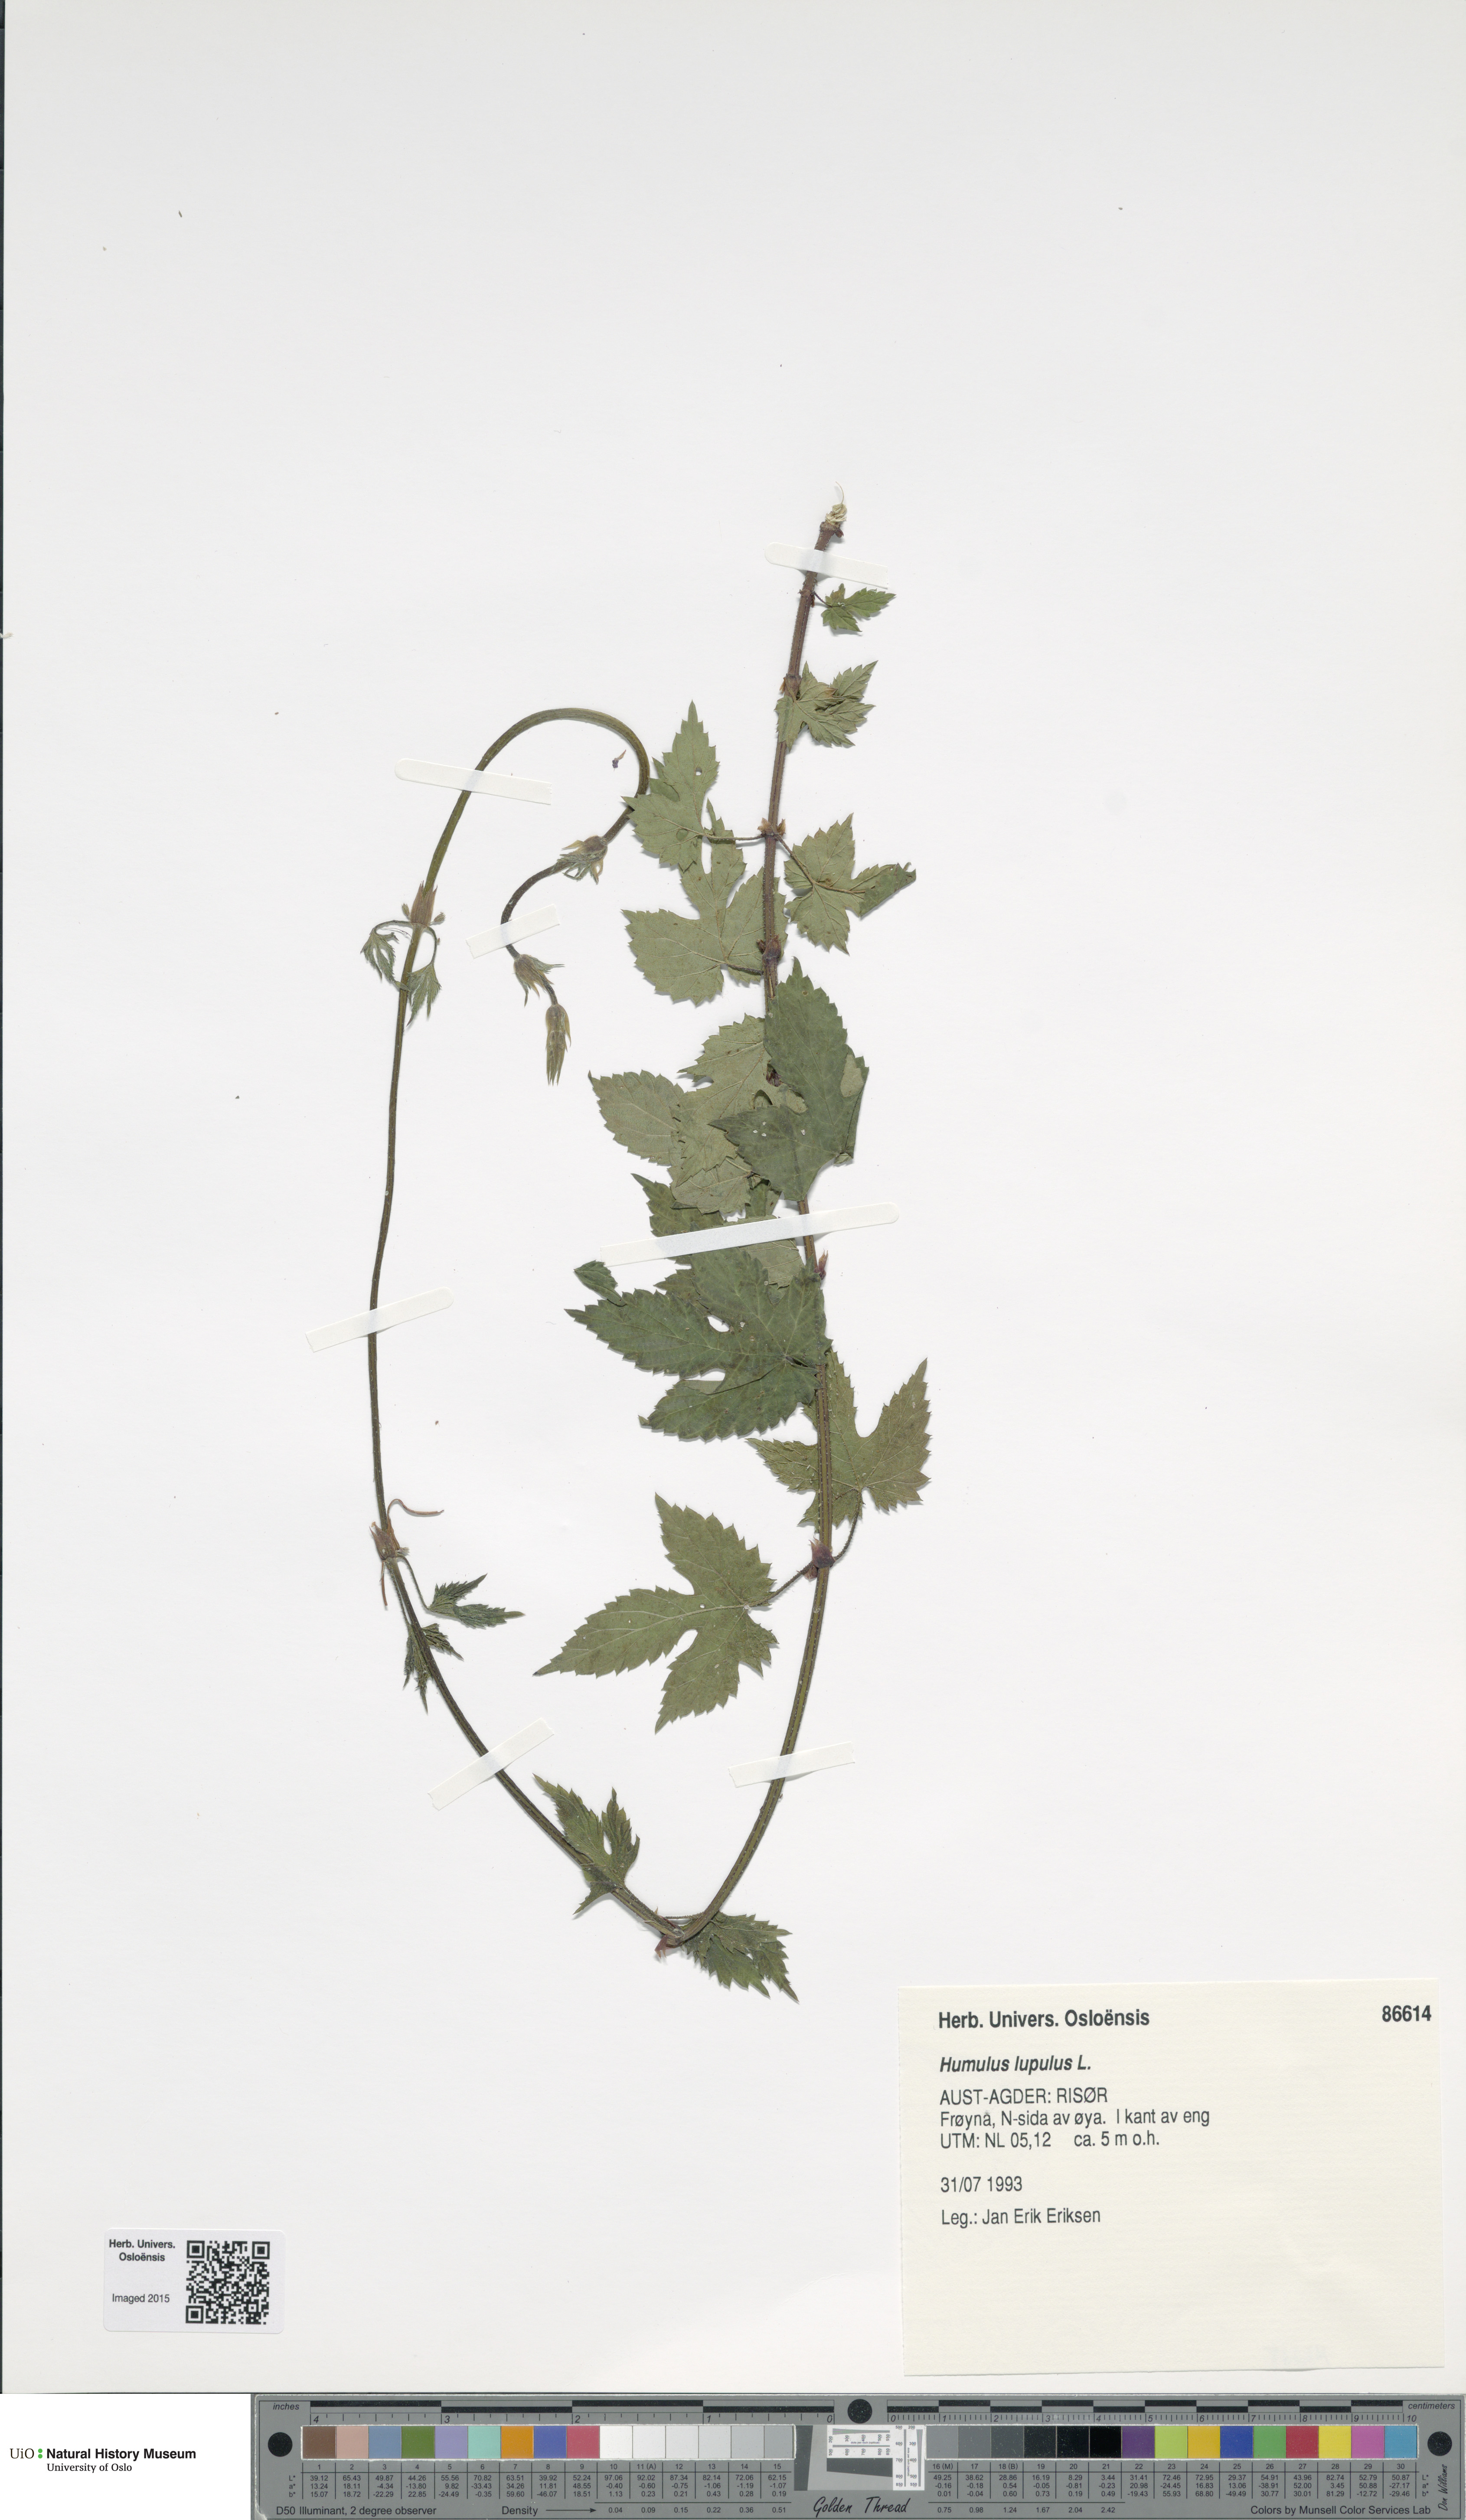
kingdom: Plantae
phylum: Tracheophyta
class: Magnoliopsida
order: Rosales
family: Cannabaceae
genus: Humulus
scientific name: Humulus lupulus
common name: Hop
